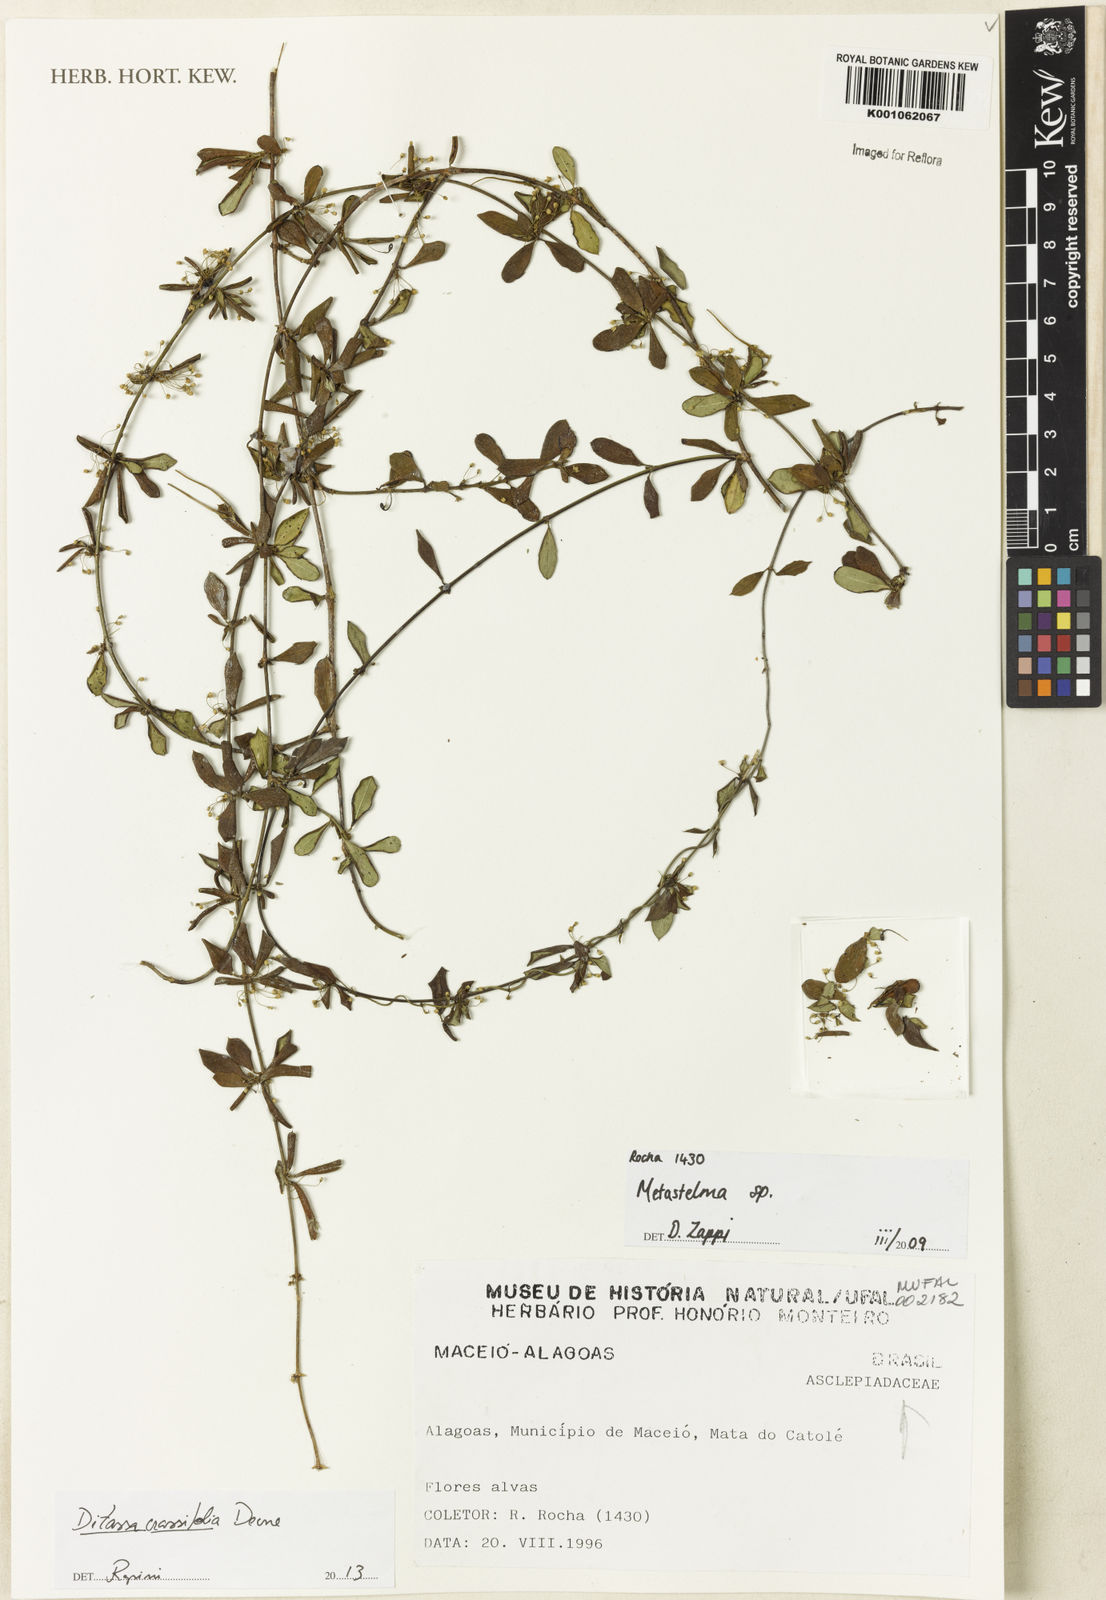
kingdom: Plantae
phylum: Tracheophyta
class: Magnoliopsida
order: Gentianales
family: Apocynaceae
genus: Ditassa
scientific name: Ditassa crassifolia
